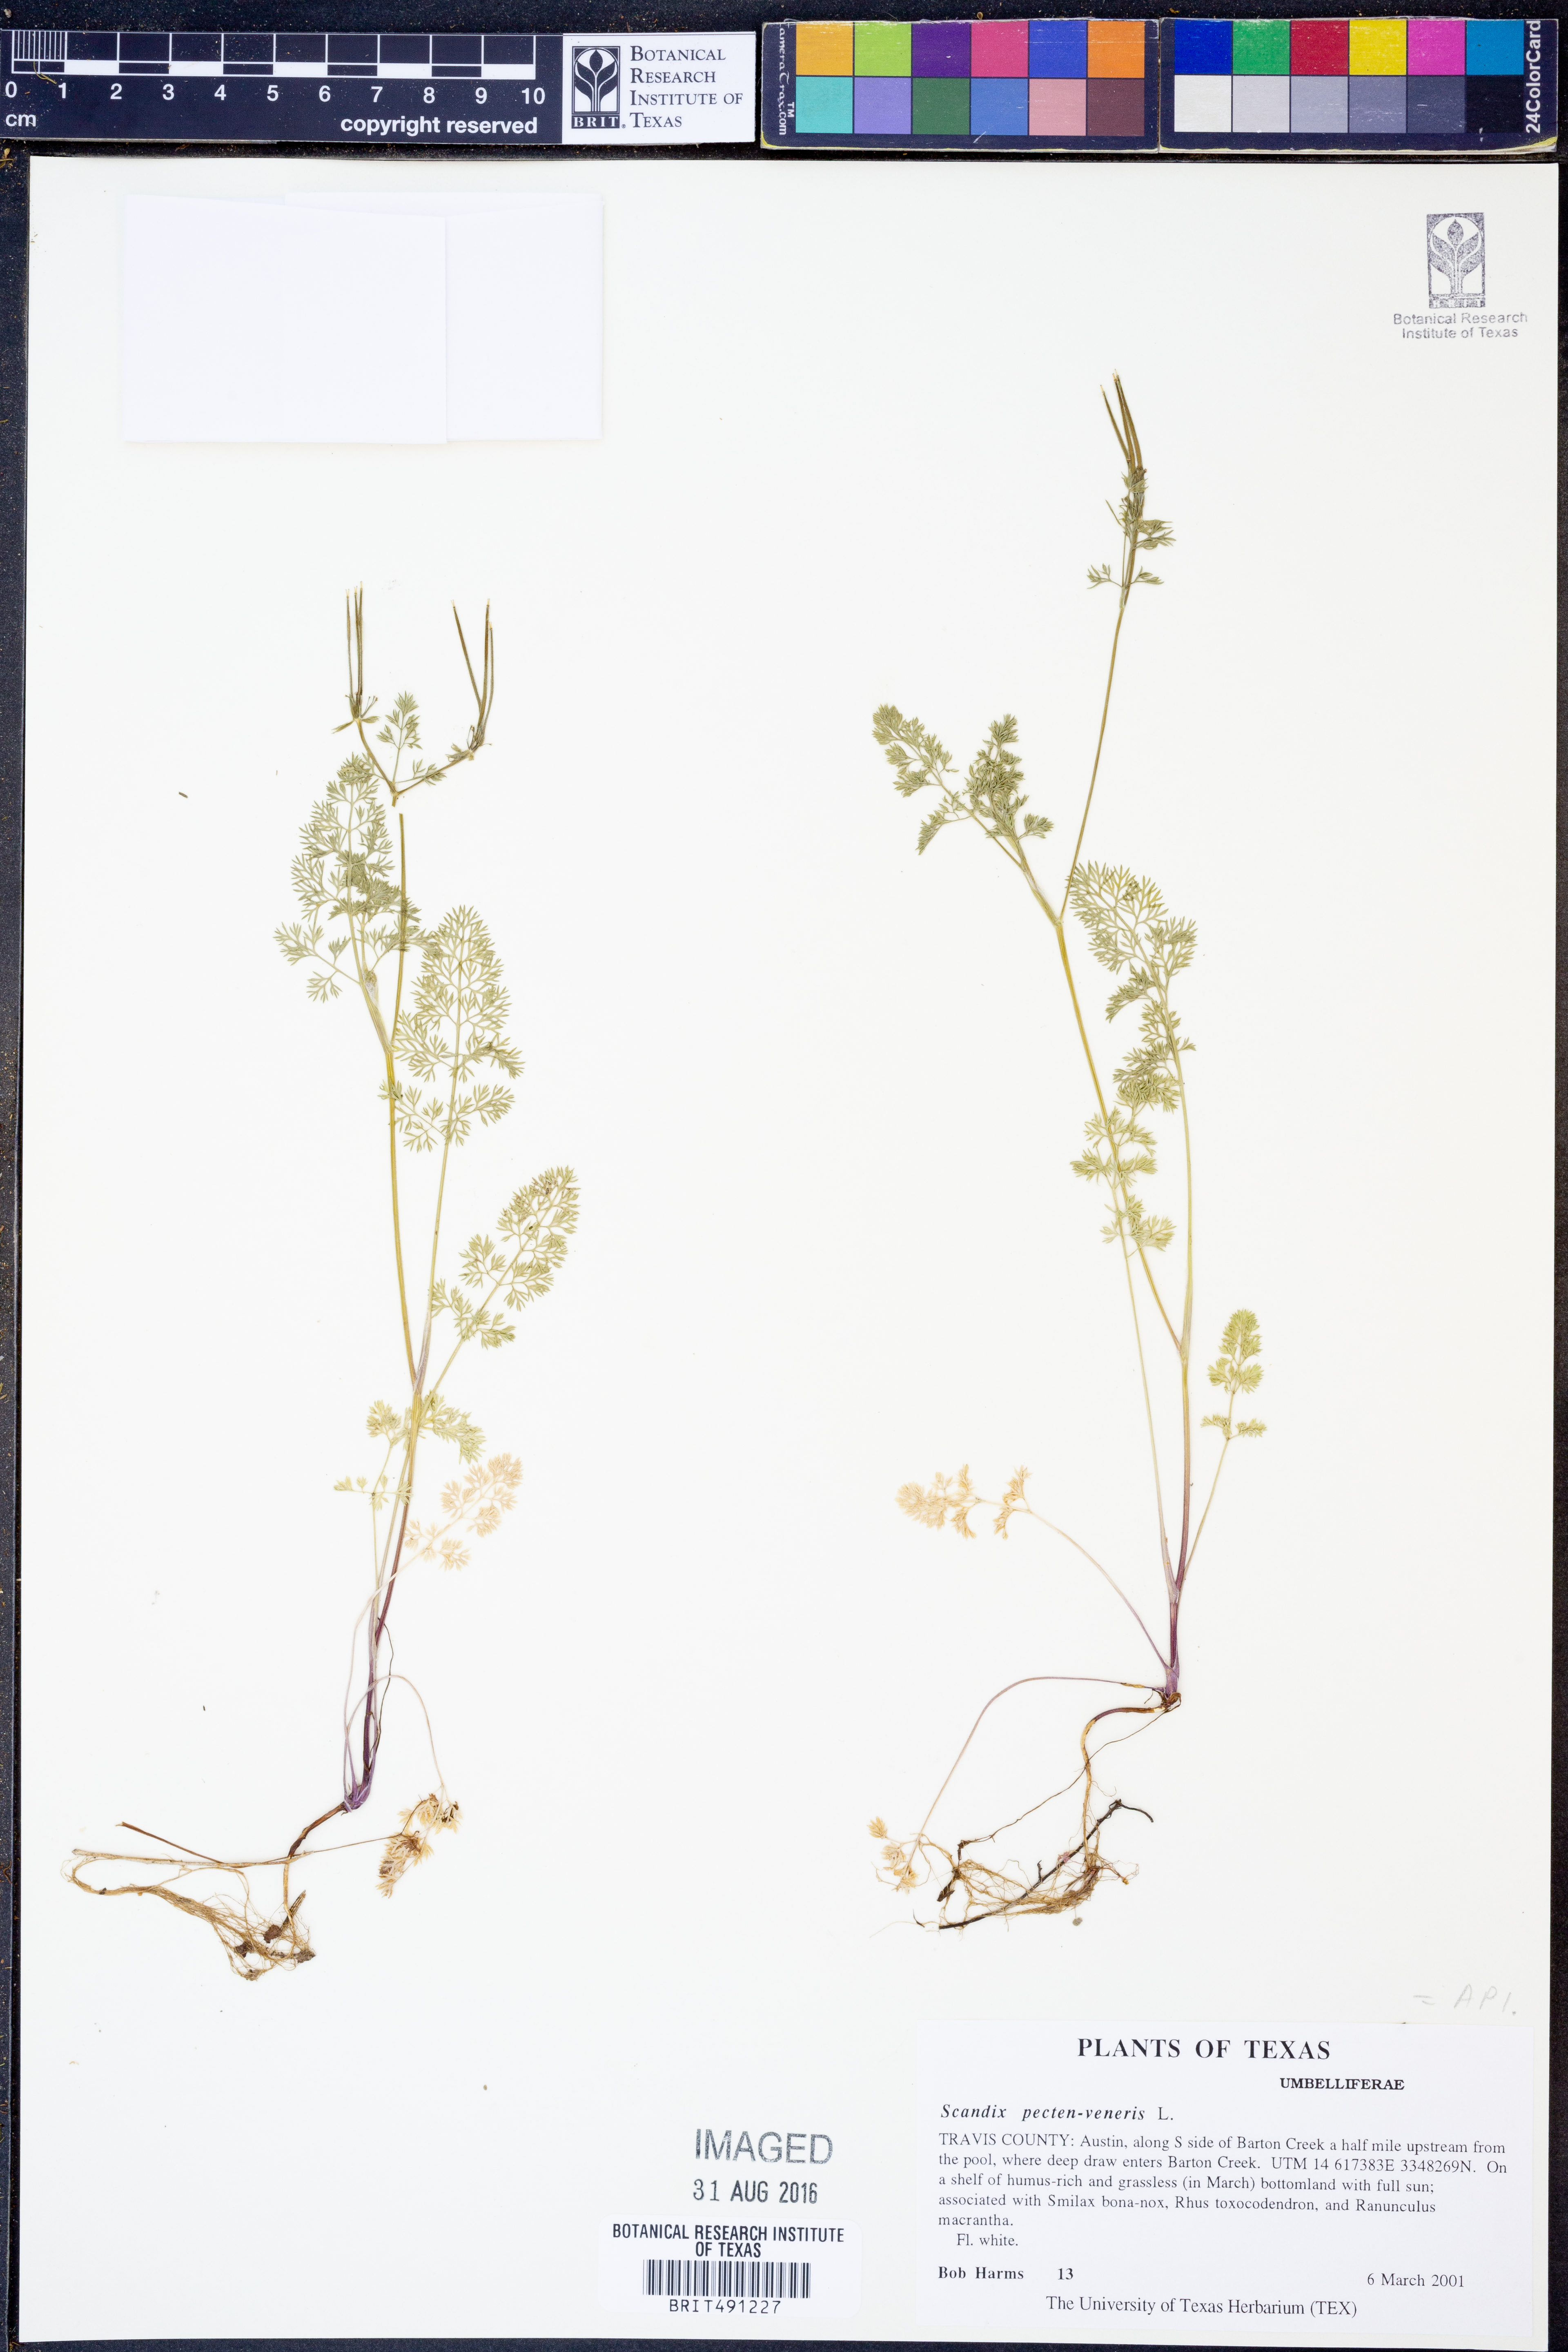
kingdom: Plantae
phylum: Tracheophyta
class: Magnoliopsida
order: Apiales
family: Apiaceae
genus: Scandix
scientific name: Scandix pecten-veneris
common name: Shepherd's-needle
